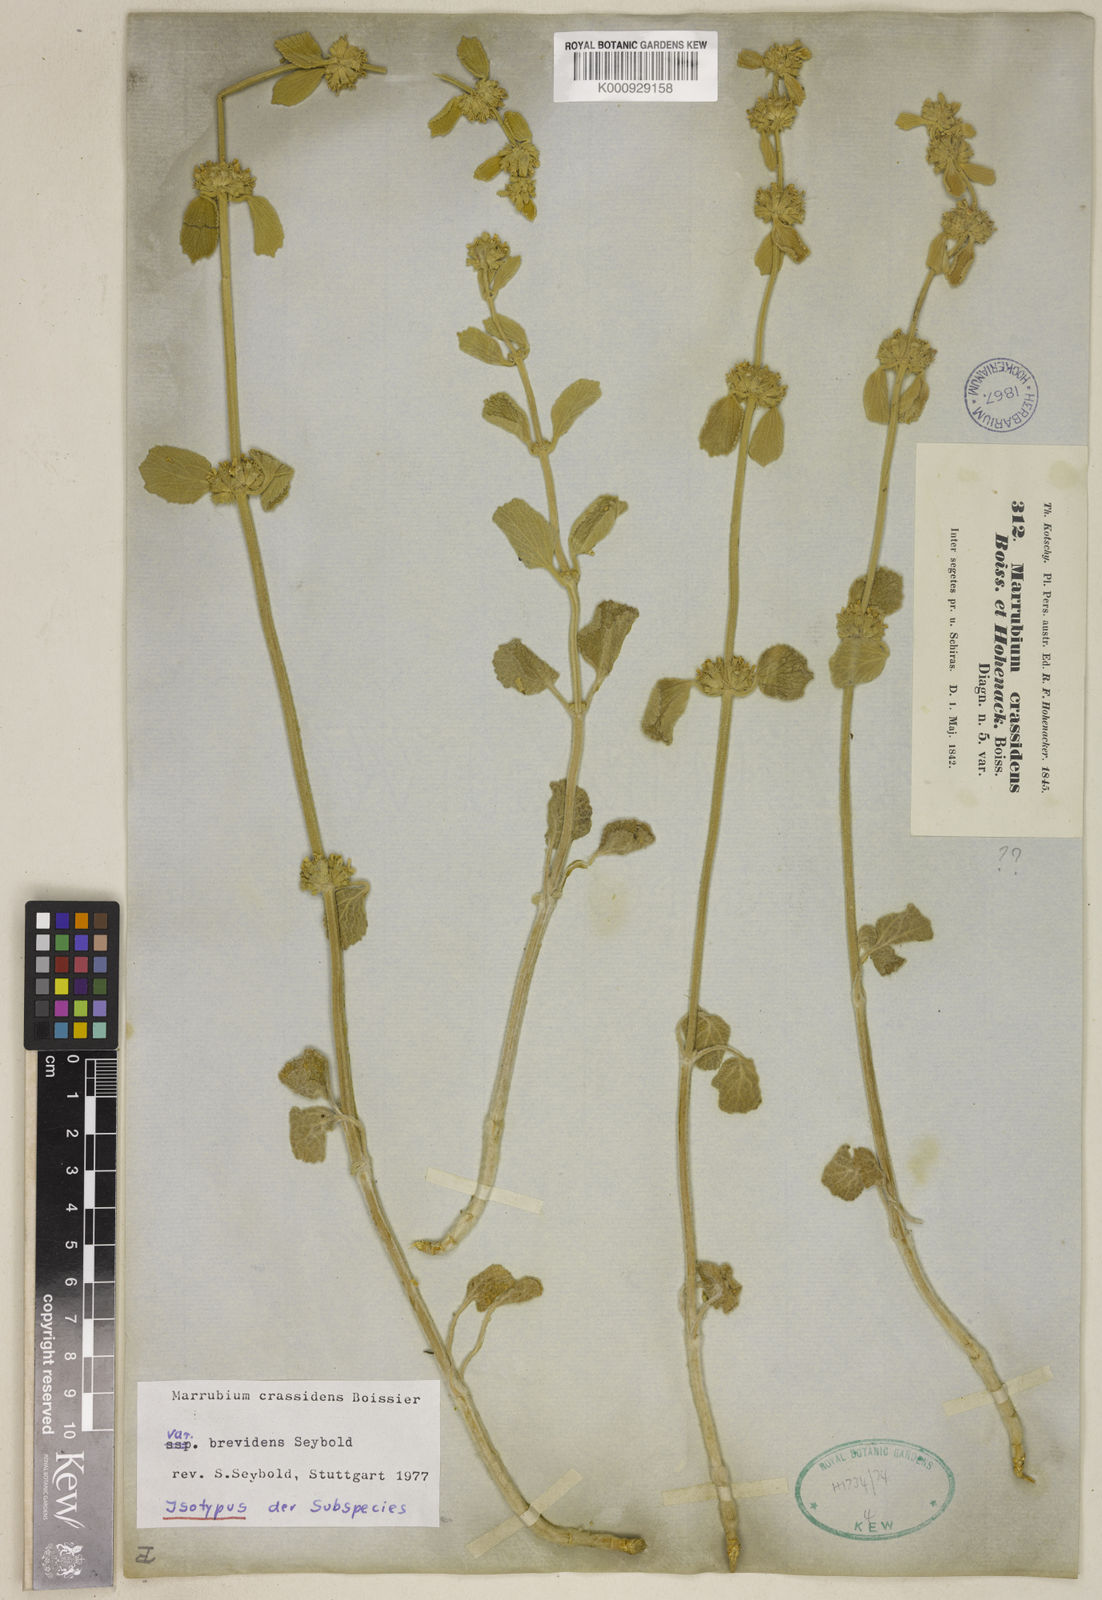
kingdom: Plantae
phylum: Tracheophyta
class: Magnoliopsida
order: Lamiales
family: Lamiaceae
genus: Marrubium
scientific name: Marrubium crassidens
